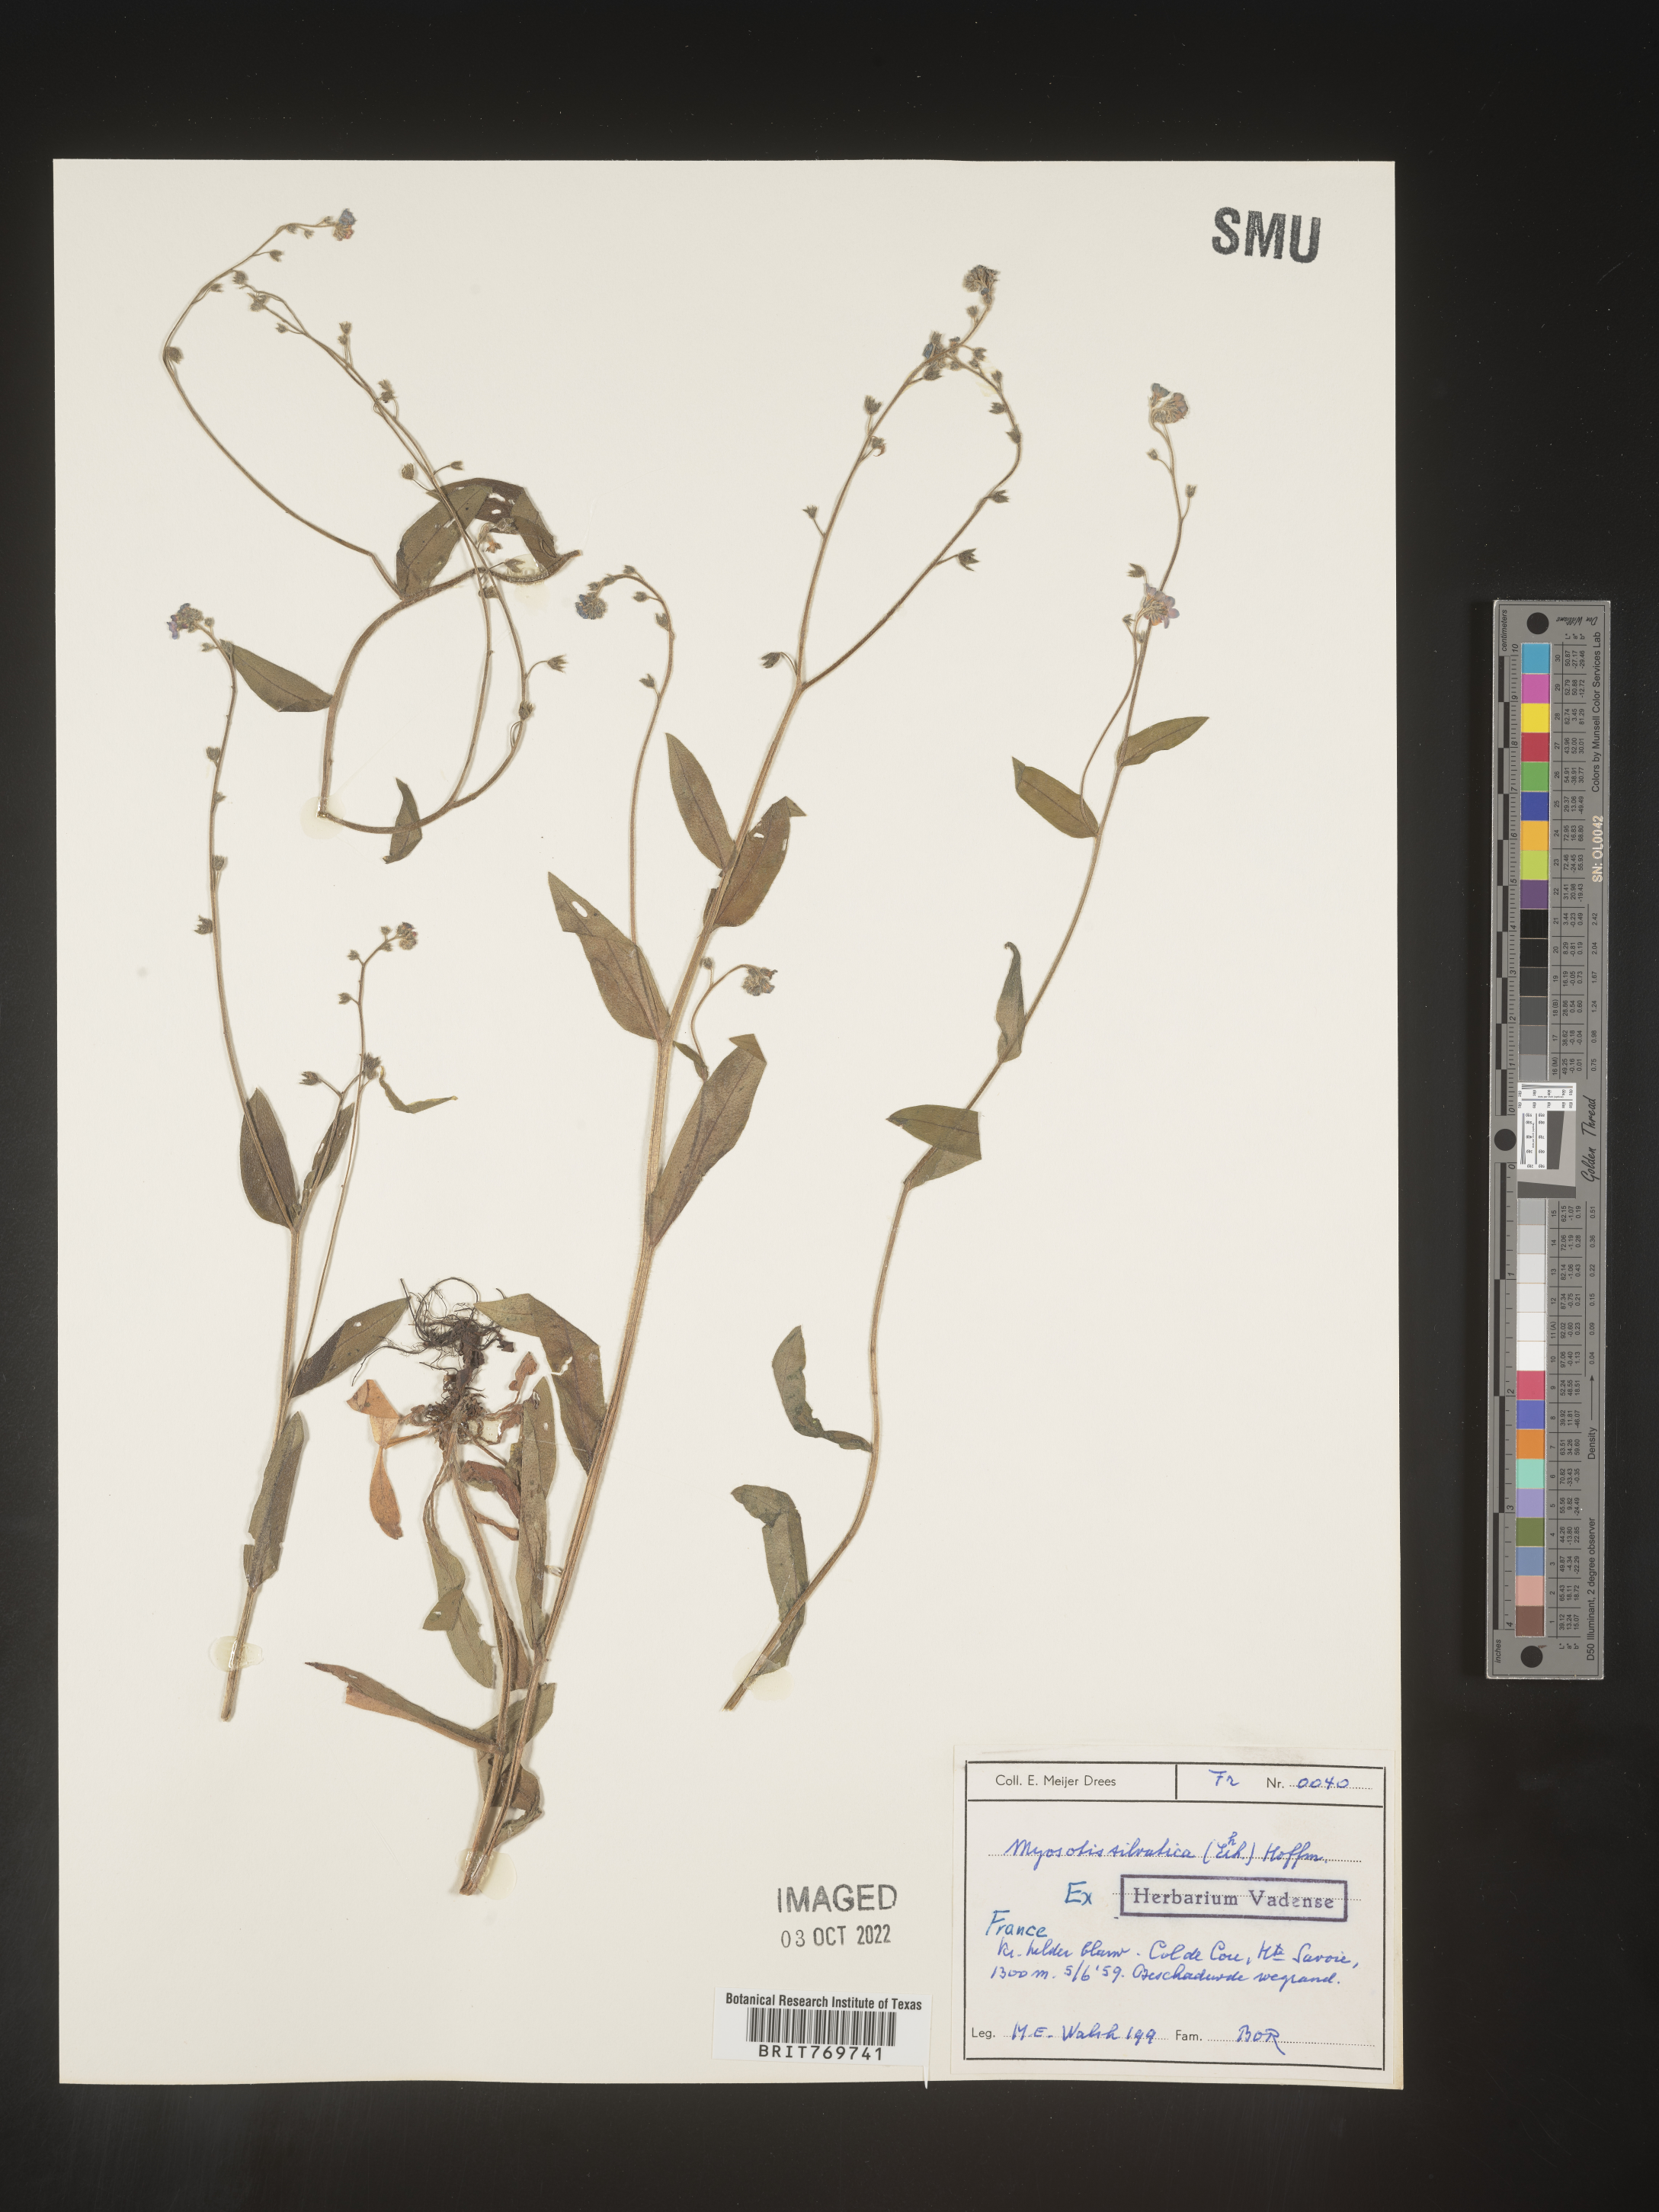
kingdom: Plantae
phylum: Tracheophyta
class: Magnoliopsida
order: Boraginales
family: Boraginaceae
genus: Myosotis
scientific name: Myosotis
